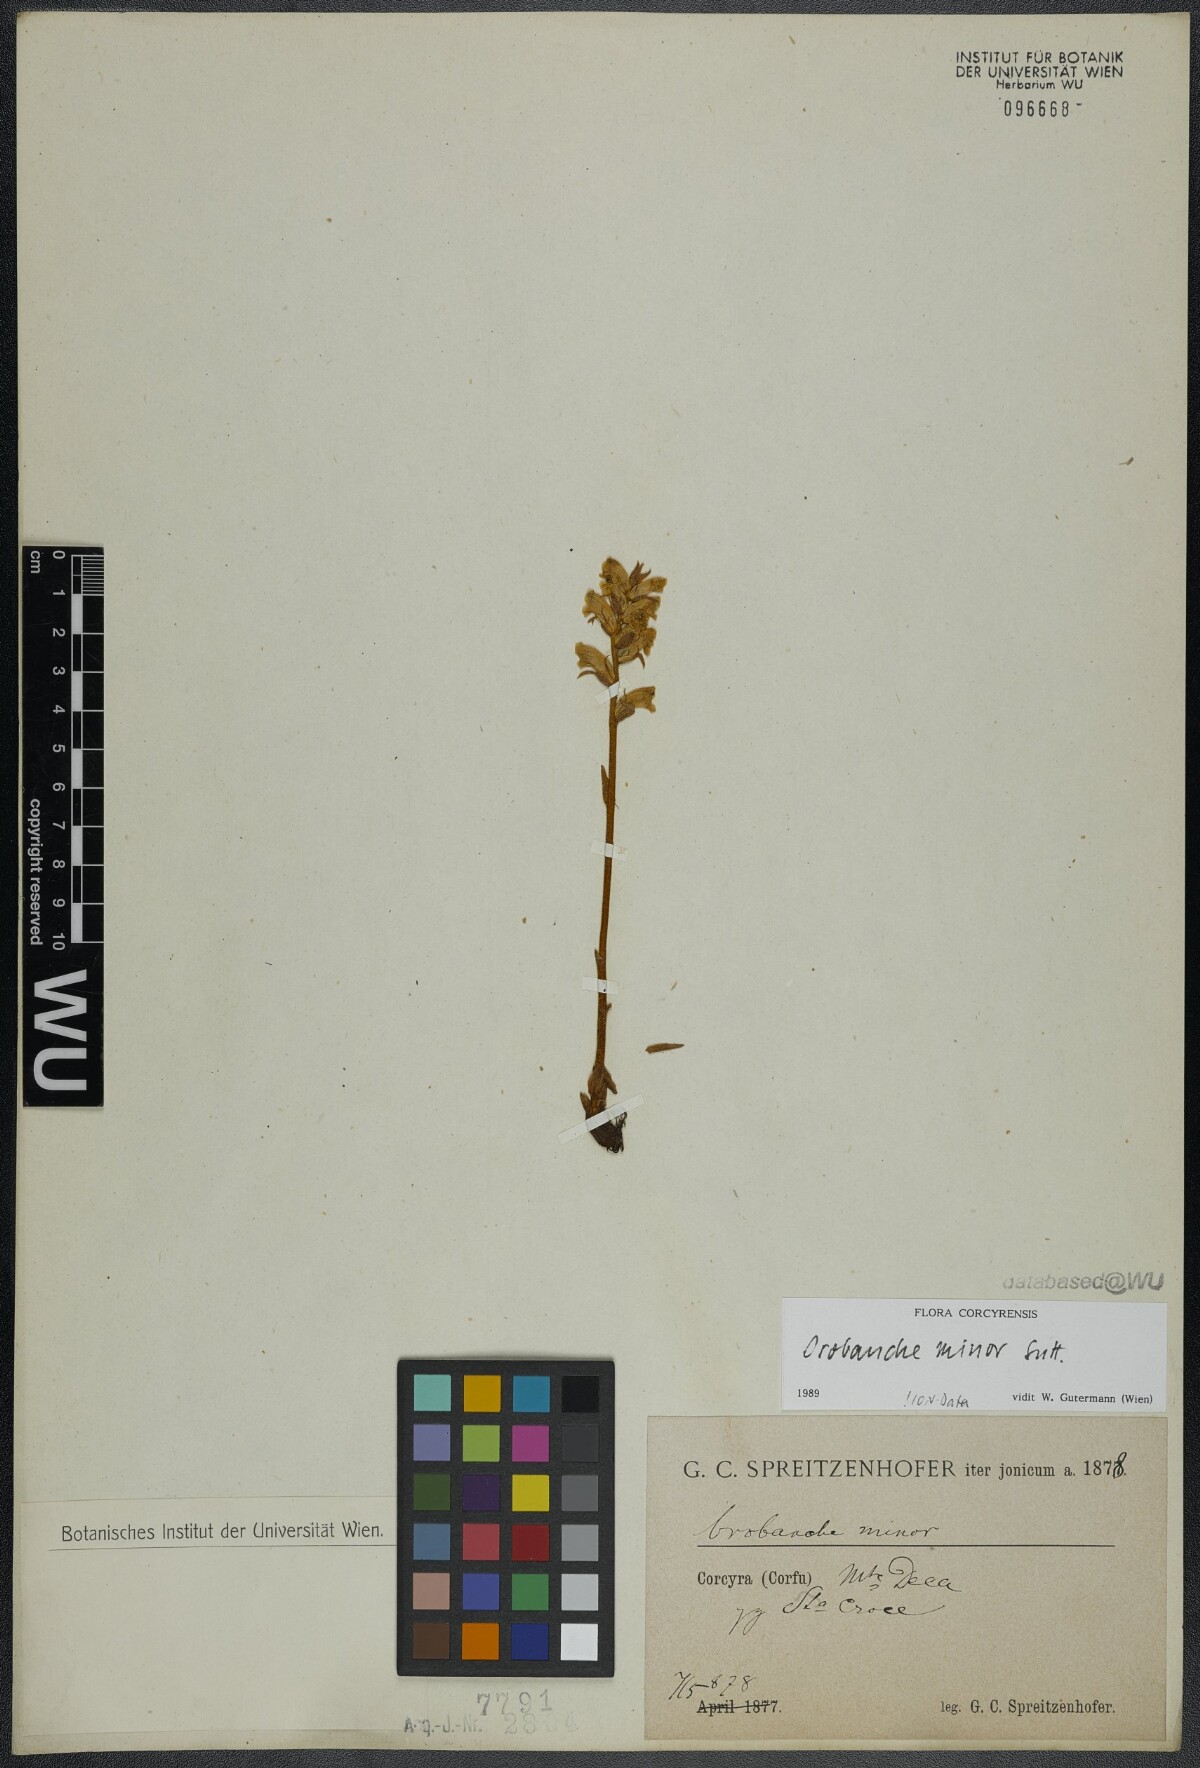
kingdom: Plantae
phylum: Tracheophyta
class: Magnoliopsida
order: Lamiales
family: Orobanchaceae
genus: Orobanche
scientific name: Orobanche minor
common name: Common broomrape
